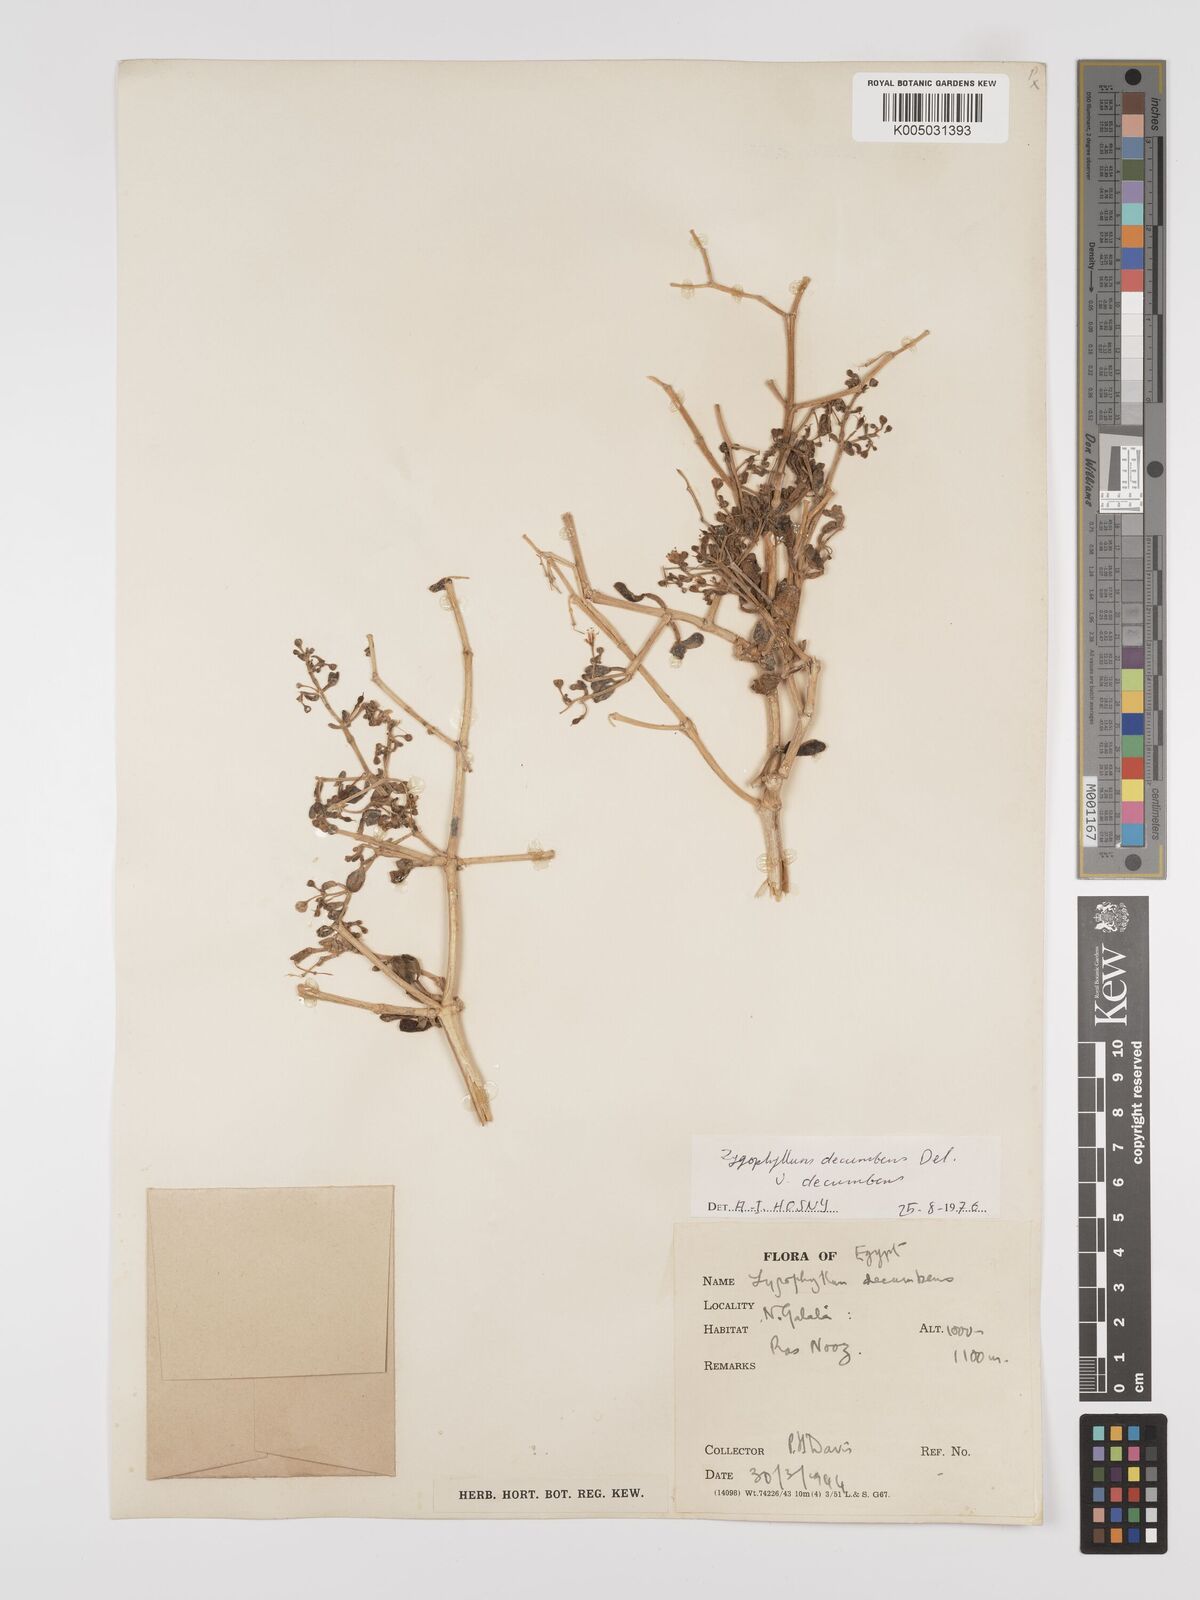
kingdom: Plantae
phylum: Tracheophyta
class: Magnoliopsida
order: Zygophyllales
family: Zygophyllaceae
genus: Tetraena
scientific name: Tetraena decumbens
